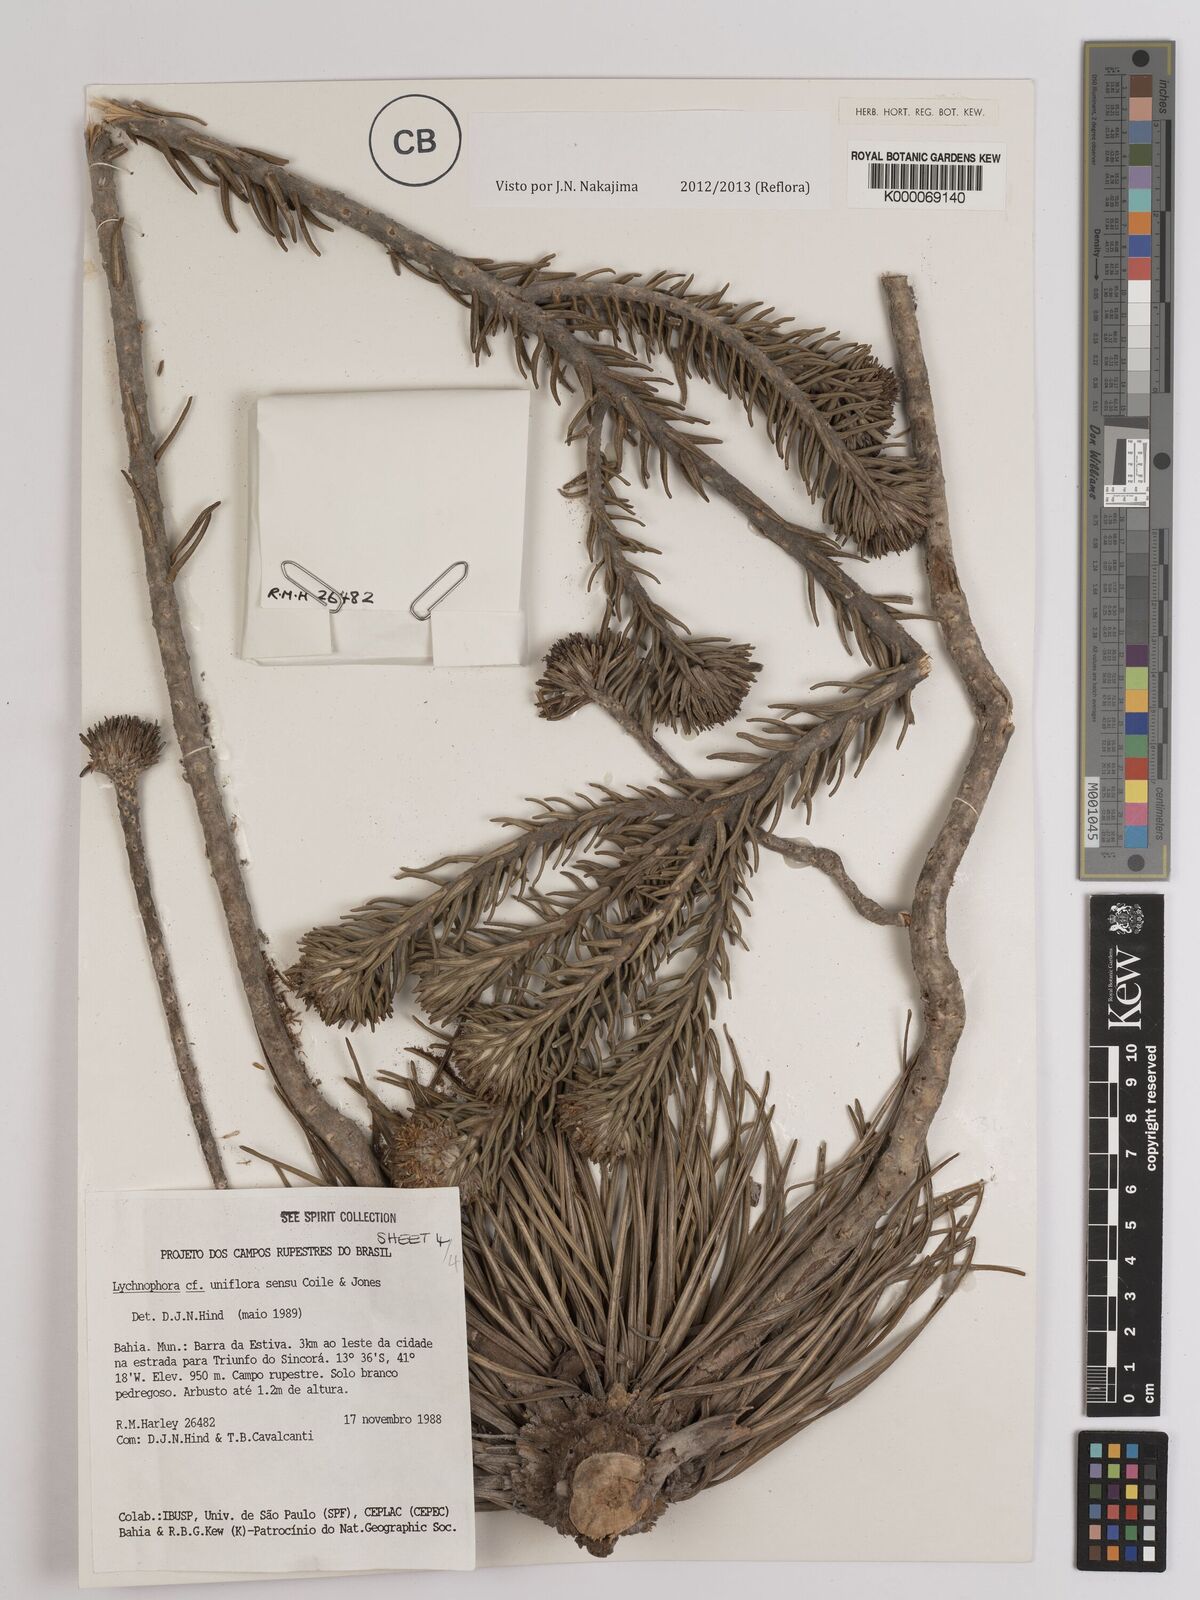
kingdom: Plantae
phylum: Tracheophyta
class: Magnoliopsida
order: Asterales
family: Asteraceae
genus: Lychnophora
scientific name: Lychnophora uniflora
